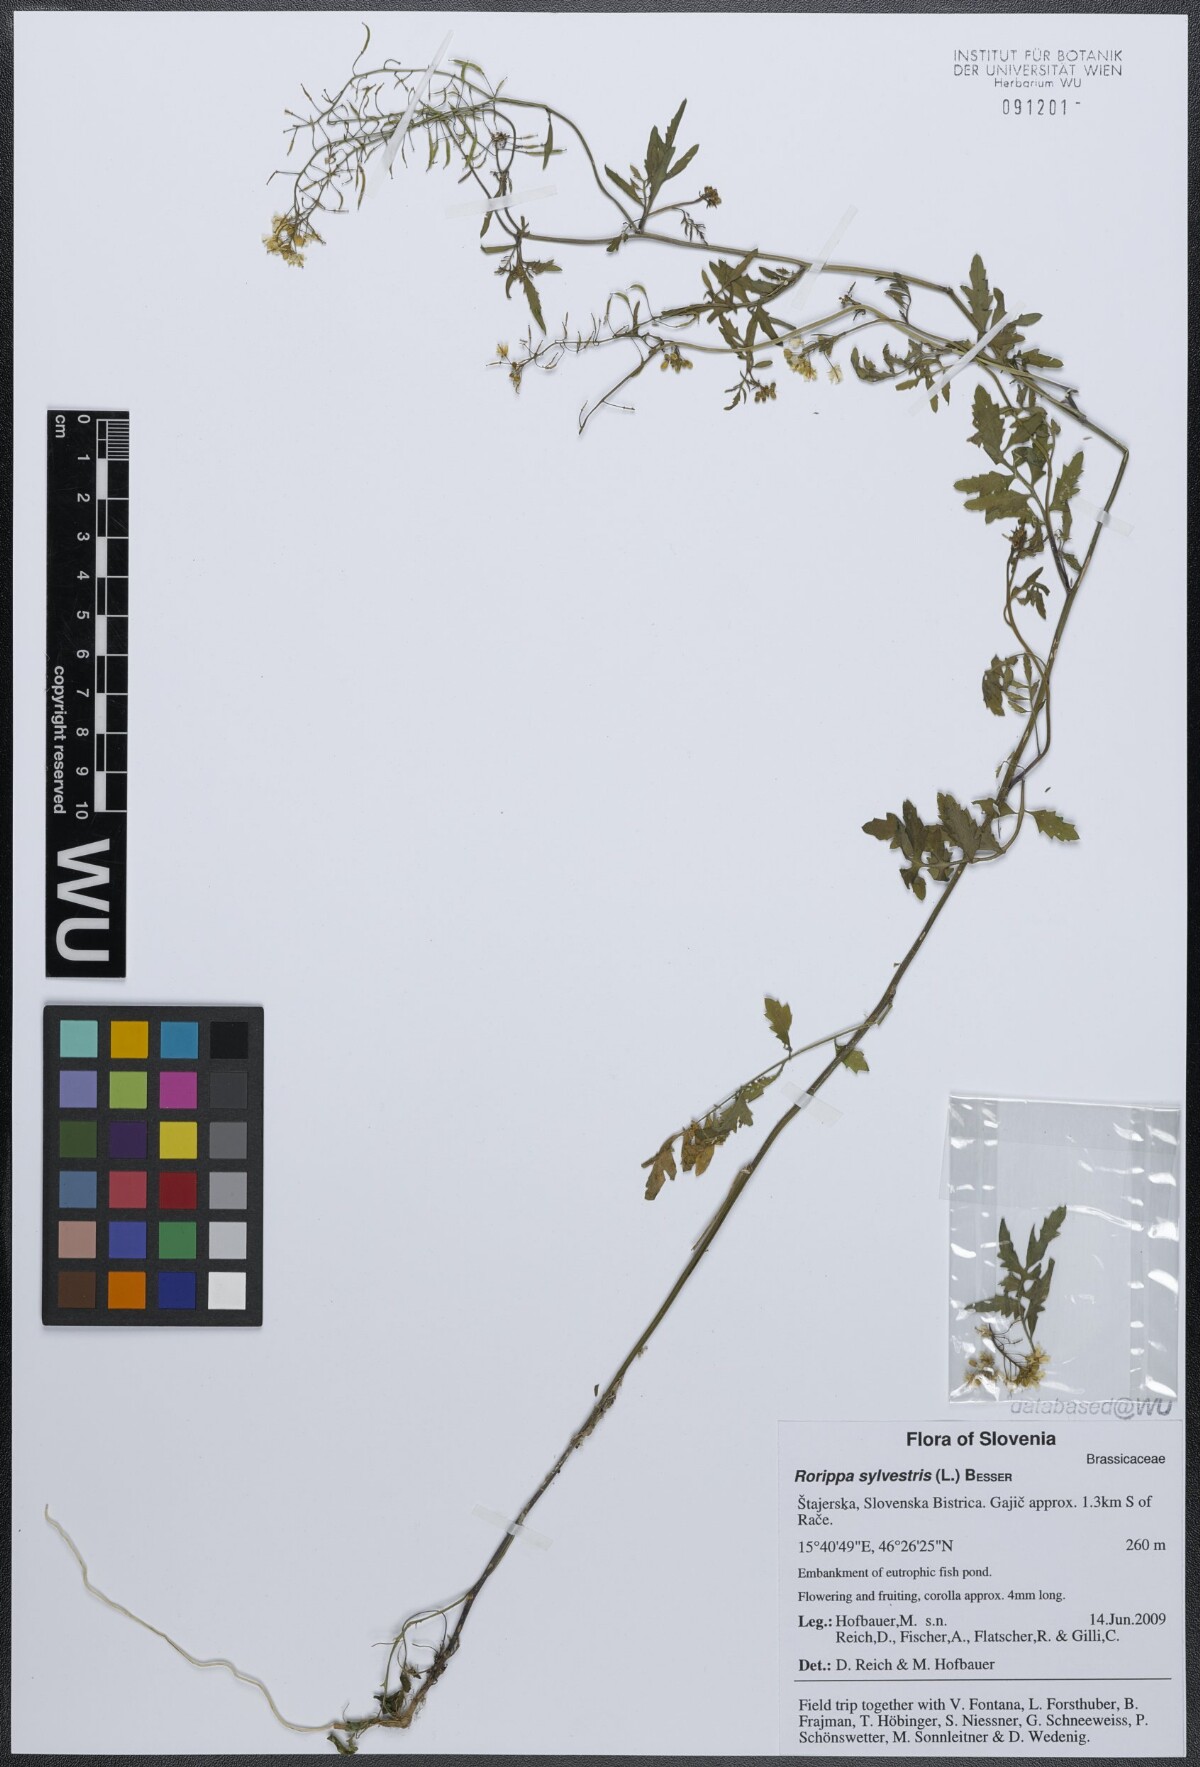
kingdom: Plantae
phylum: Tracheophyta
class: Magnoliopsida
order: Brassicales
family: Brassicaceae
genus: Rorippa
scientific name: Rorippa sylvestris
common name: Creeping yellowcress
